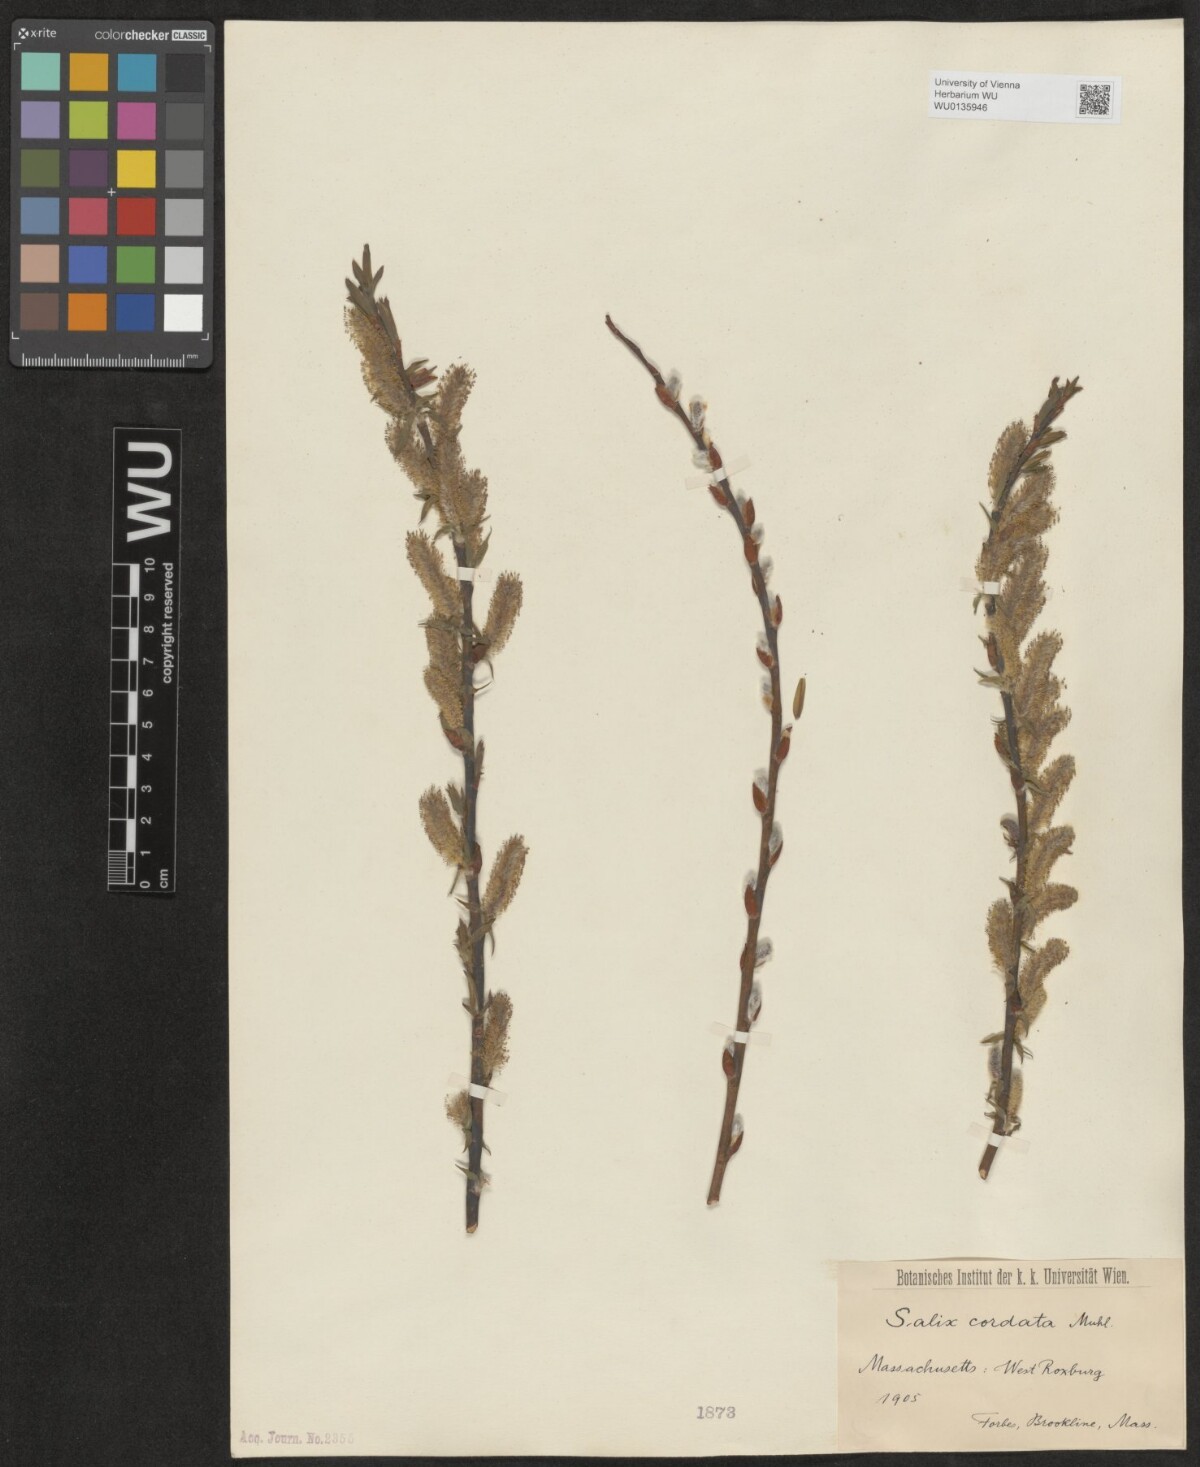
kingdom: Plantae
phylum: Tracheophyta
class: Magnoliopsida
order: Malpighiales
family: Salicaceae
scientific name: Salicaceae
